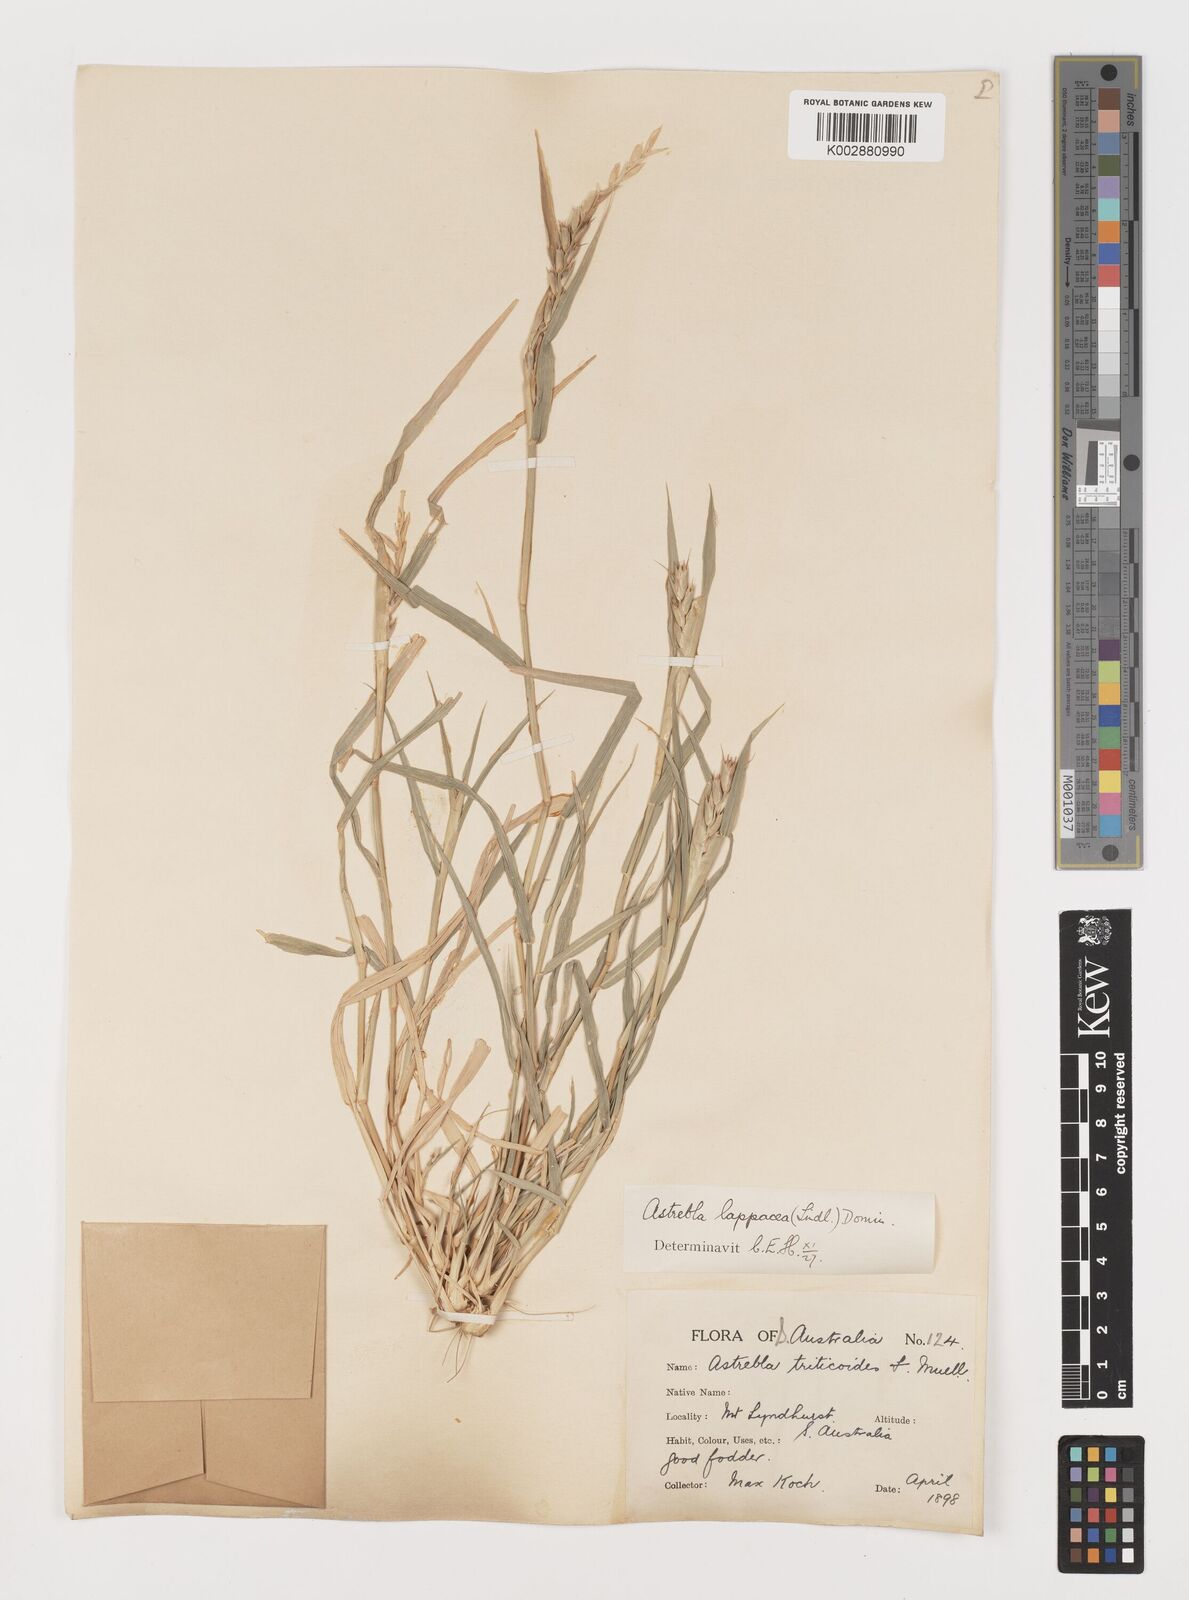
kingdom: Plantae
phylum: Tracheophyta
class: Liliopsida
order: Poales
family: Poaceae
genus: Astrebla
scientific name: Astrebla lappacea
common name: Curly mitchell grass
